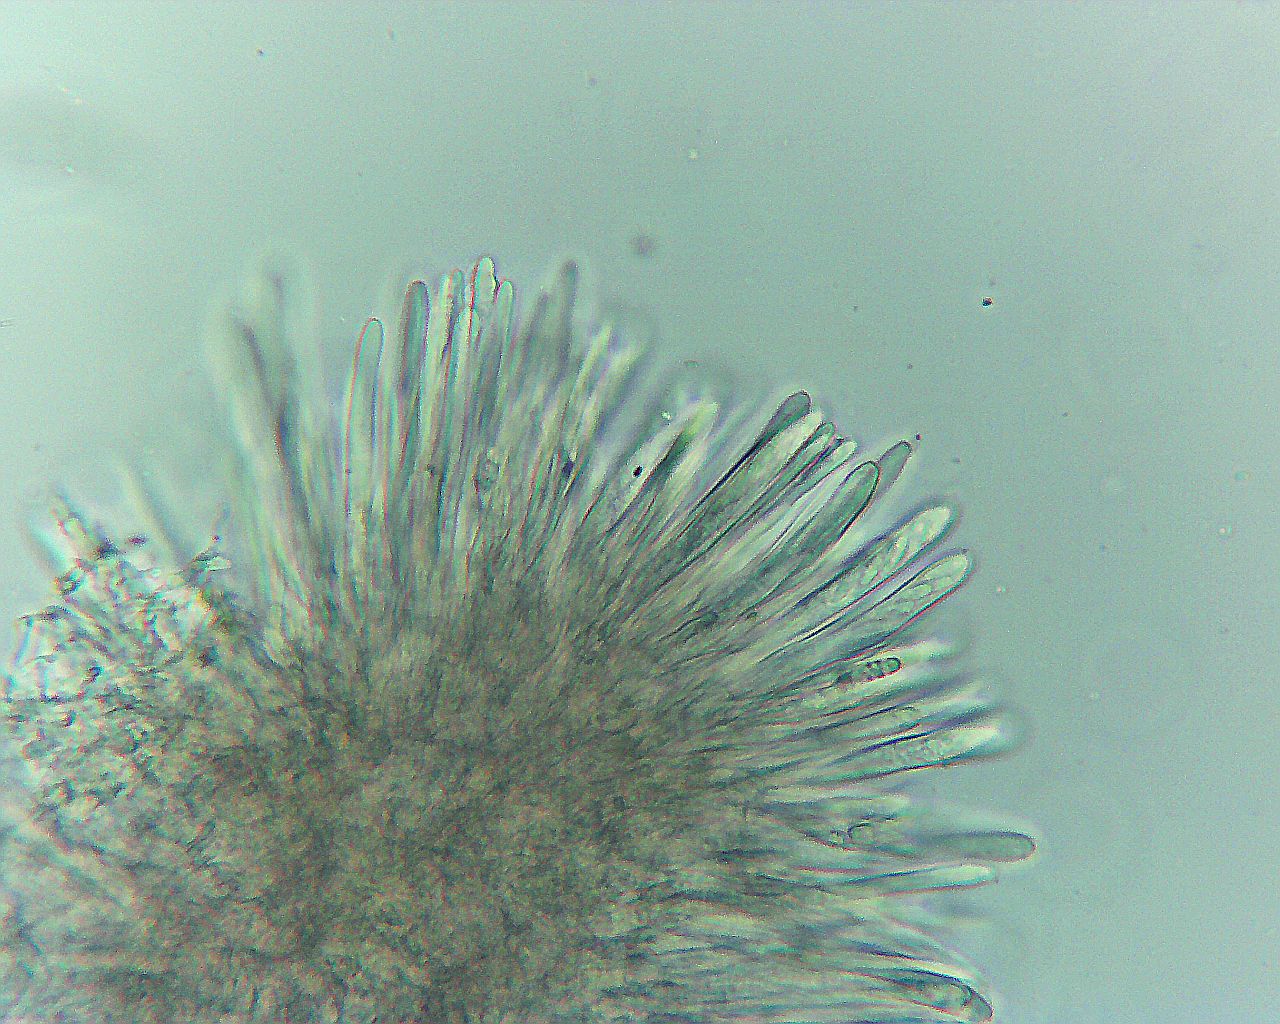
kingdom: Fungi
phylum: Ascomycota
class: Leotiomycetes
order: Helotiales
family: Lachnaceae
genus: Trichopeziza
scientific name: Trichopeziza subsulphurea
